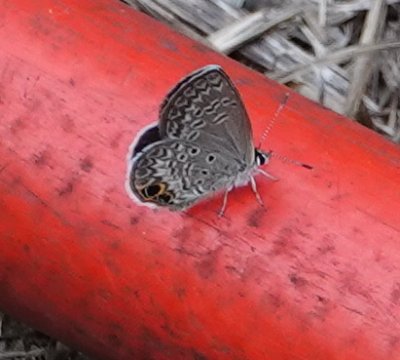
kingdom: Animalia
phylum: Arthropoda
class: Insecta
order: Lepidoptera
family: Lycaenidae
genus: Hemiargus
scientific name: Hemiargus ceraunus
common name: Ceraunus Blue
